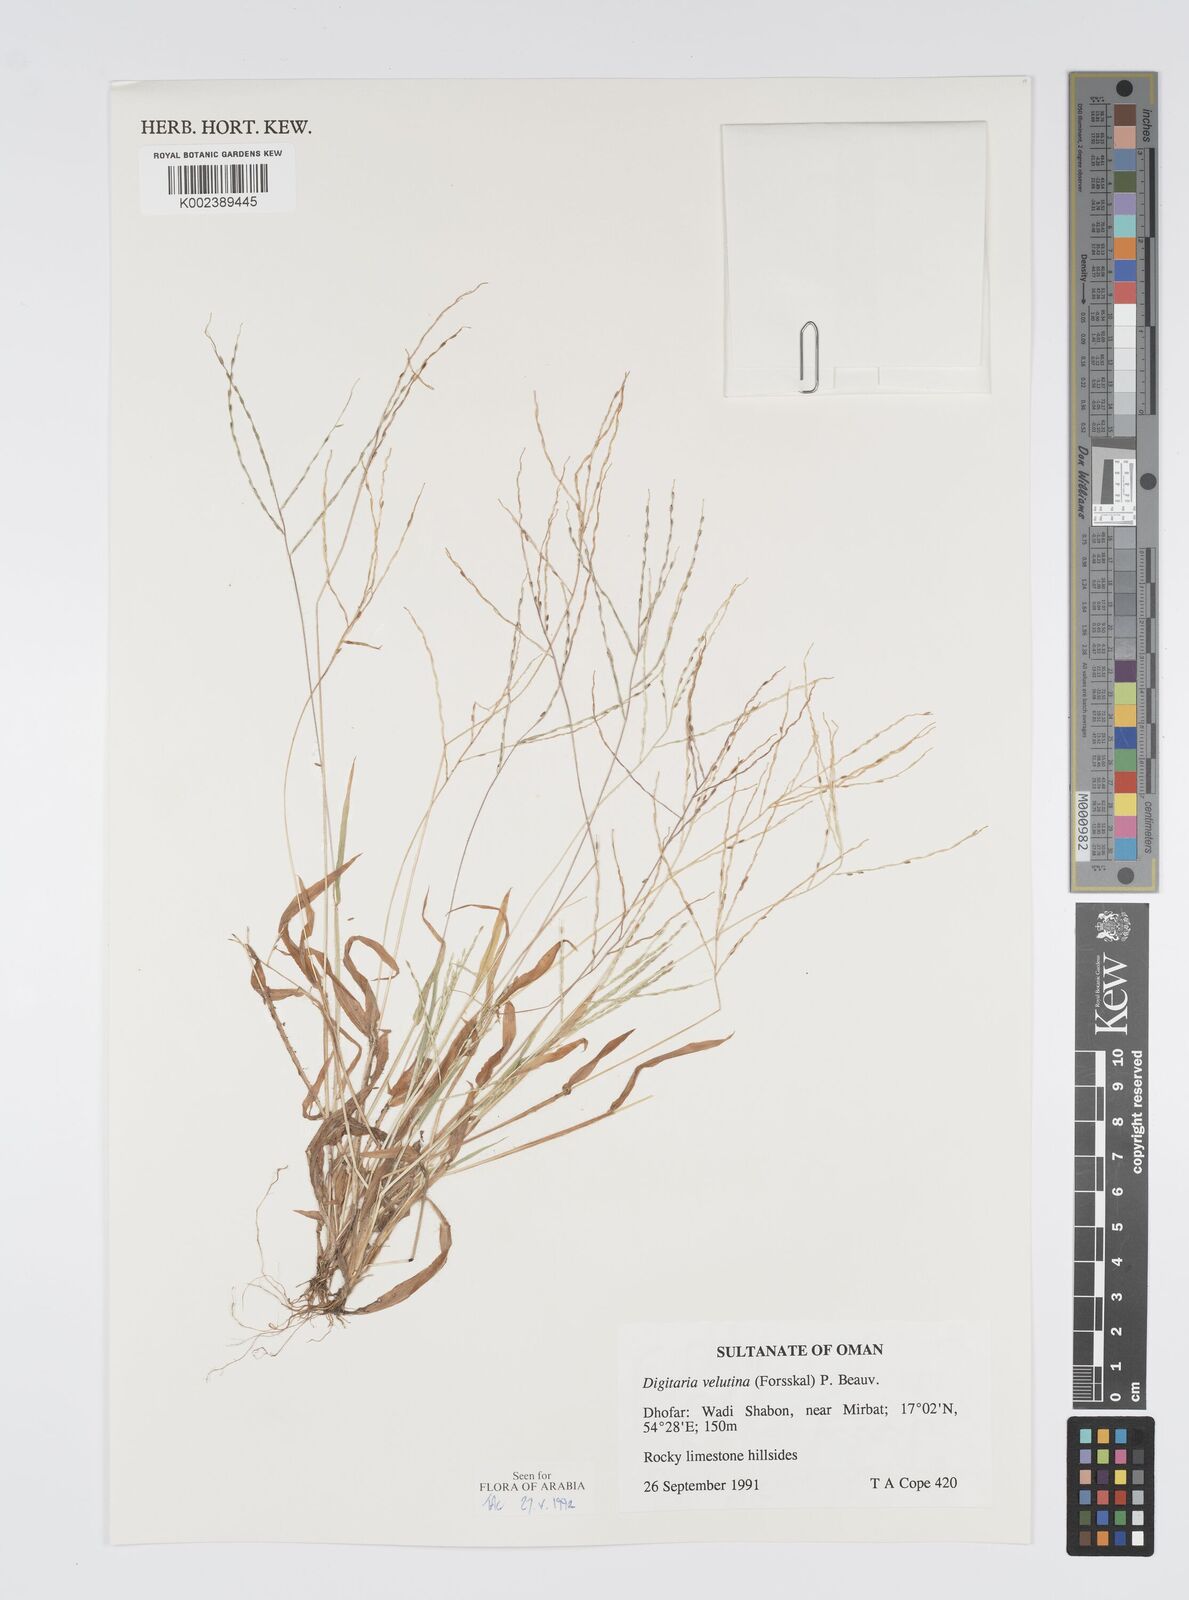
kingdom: Plantae
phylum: Tracheophyta
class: Liliopsida
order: Poales
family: Poaceae
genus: Digitaria
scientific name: Digitaria velutina
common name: Long-plume finger grass
